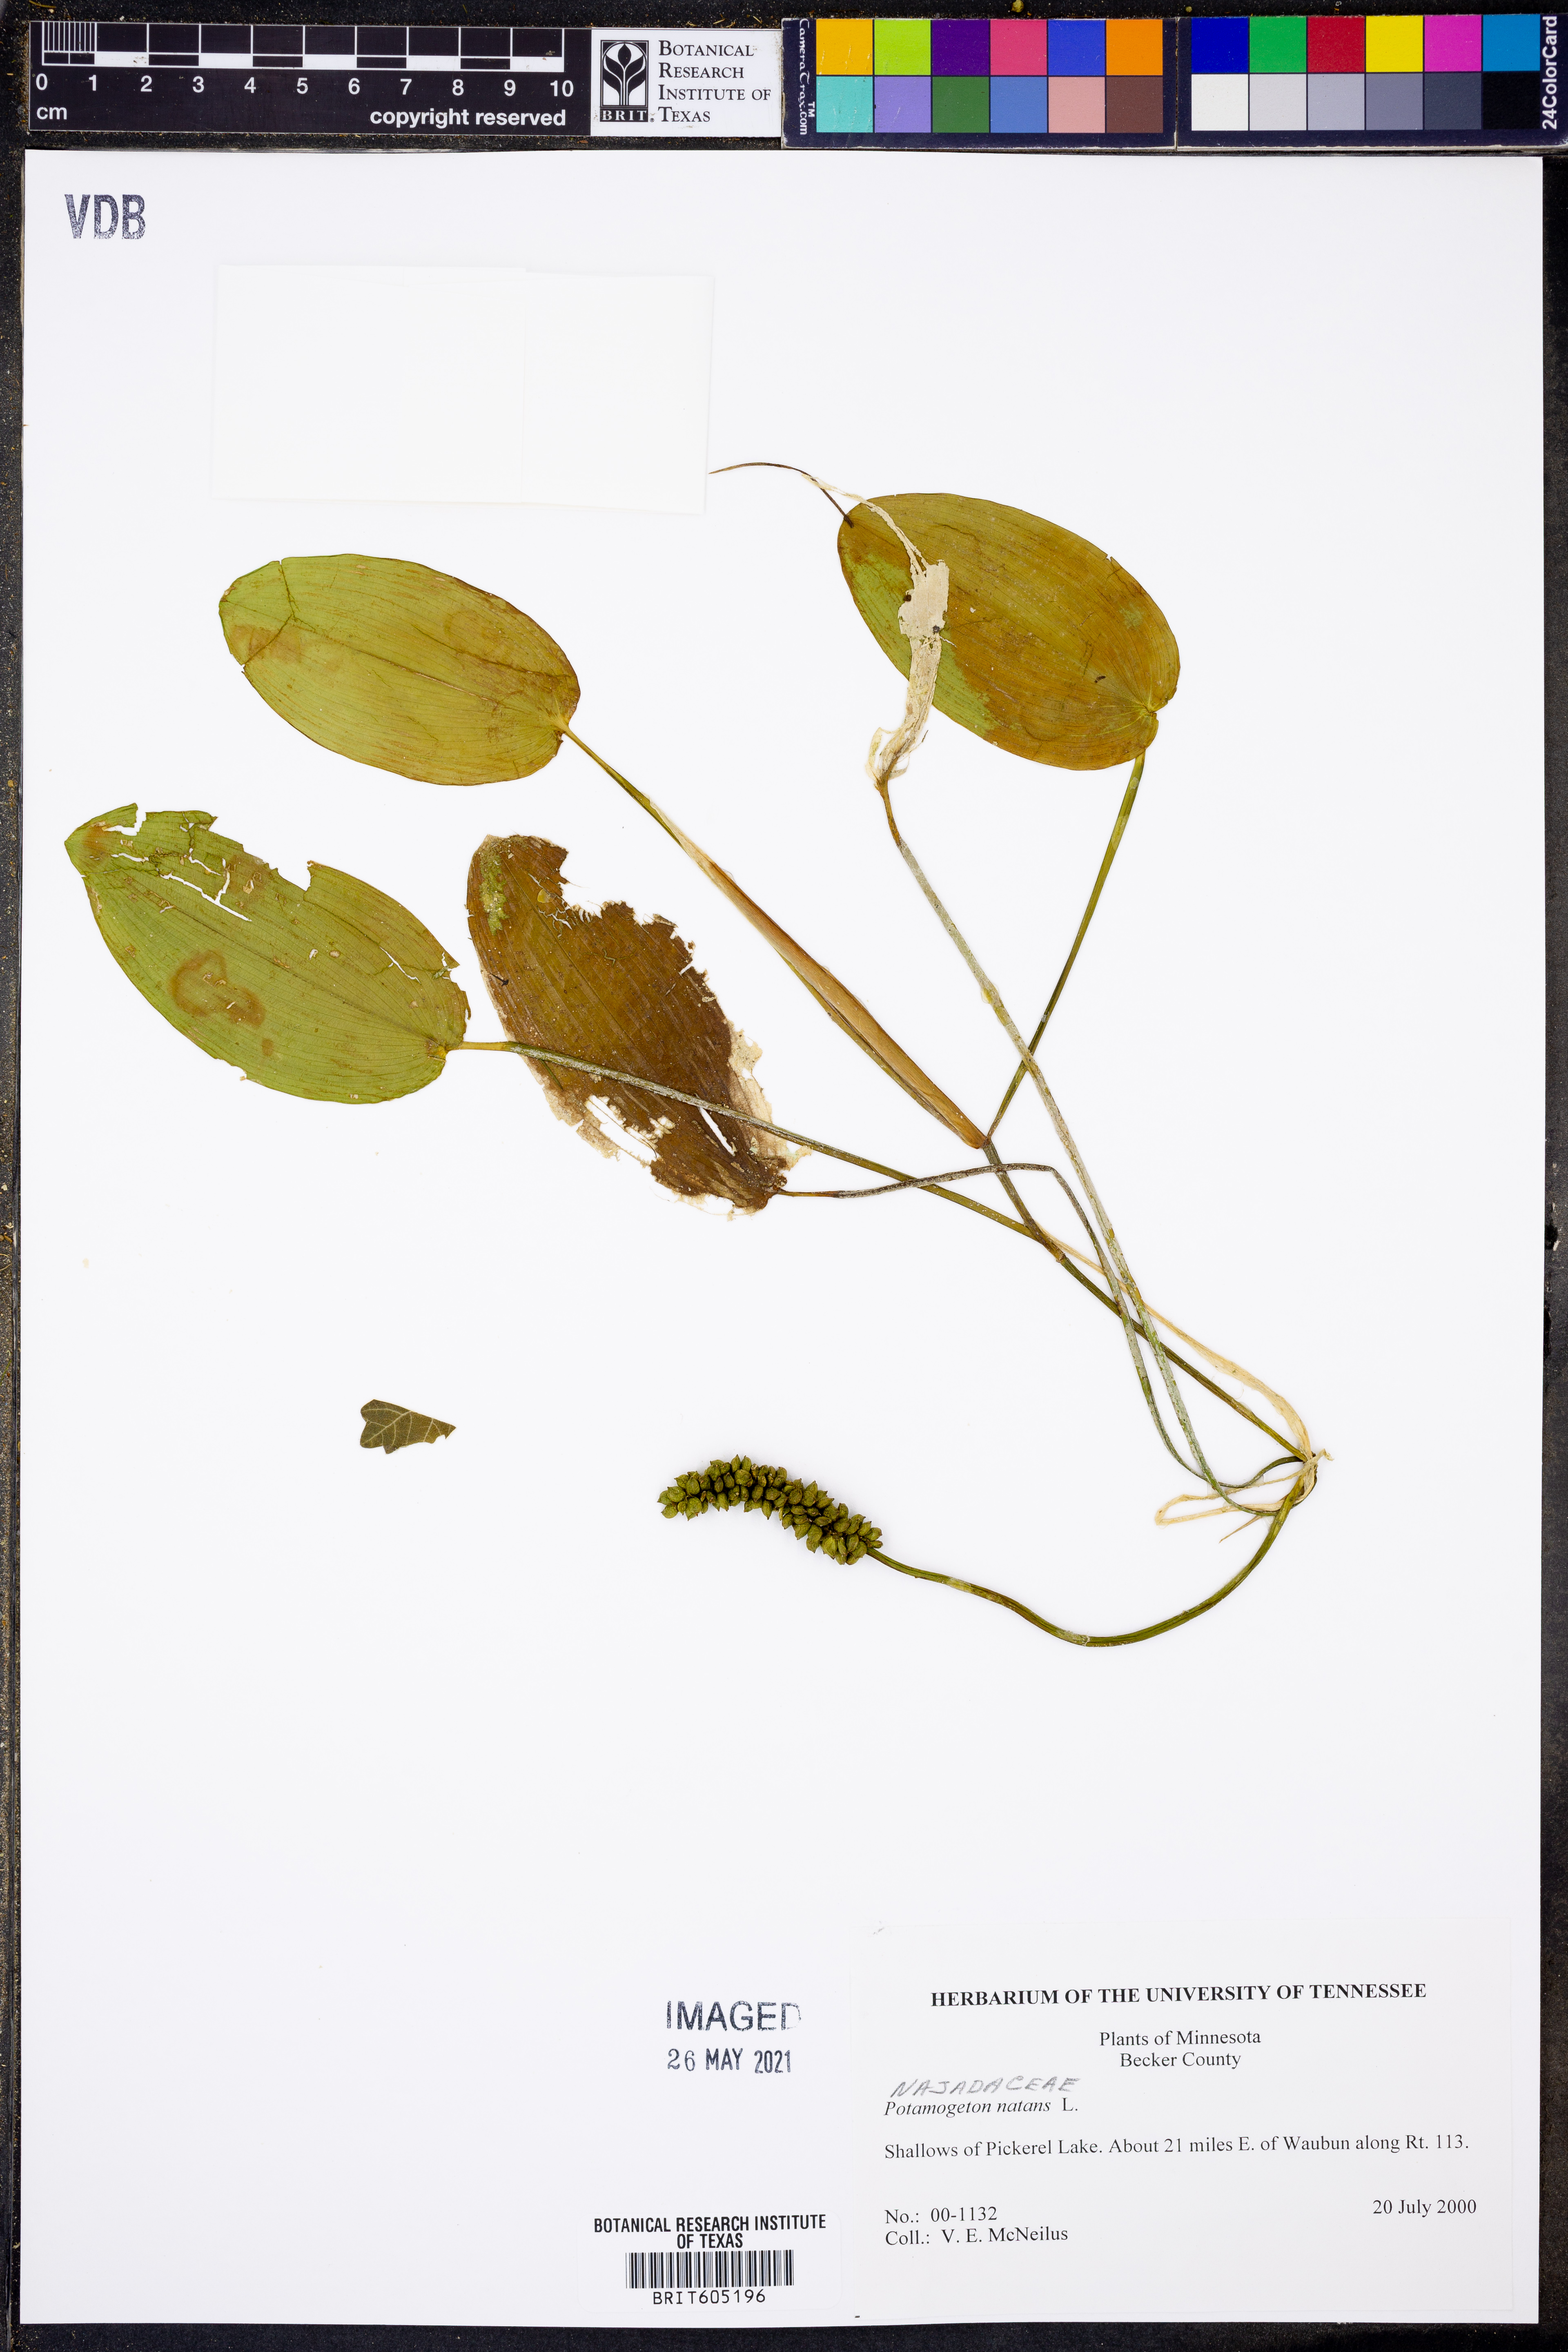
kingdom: Plantae
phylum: Tracheophyta
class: Liliopsida
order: Alismatales
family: Potamogetonaceae
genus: Potamogeton
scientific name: Potamogeton natans
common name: Broad-leaved pondweed
